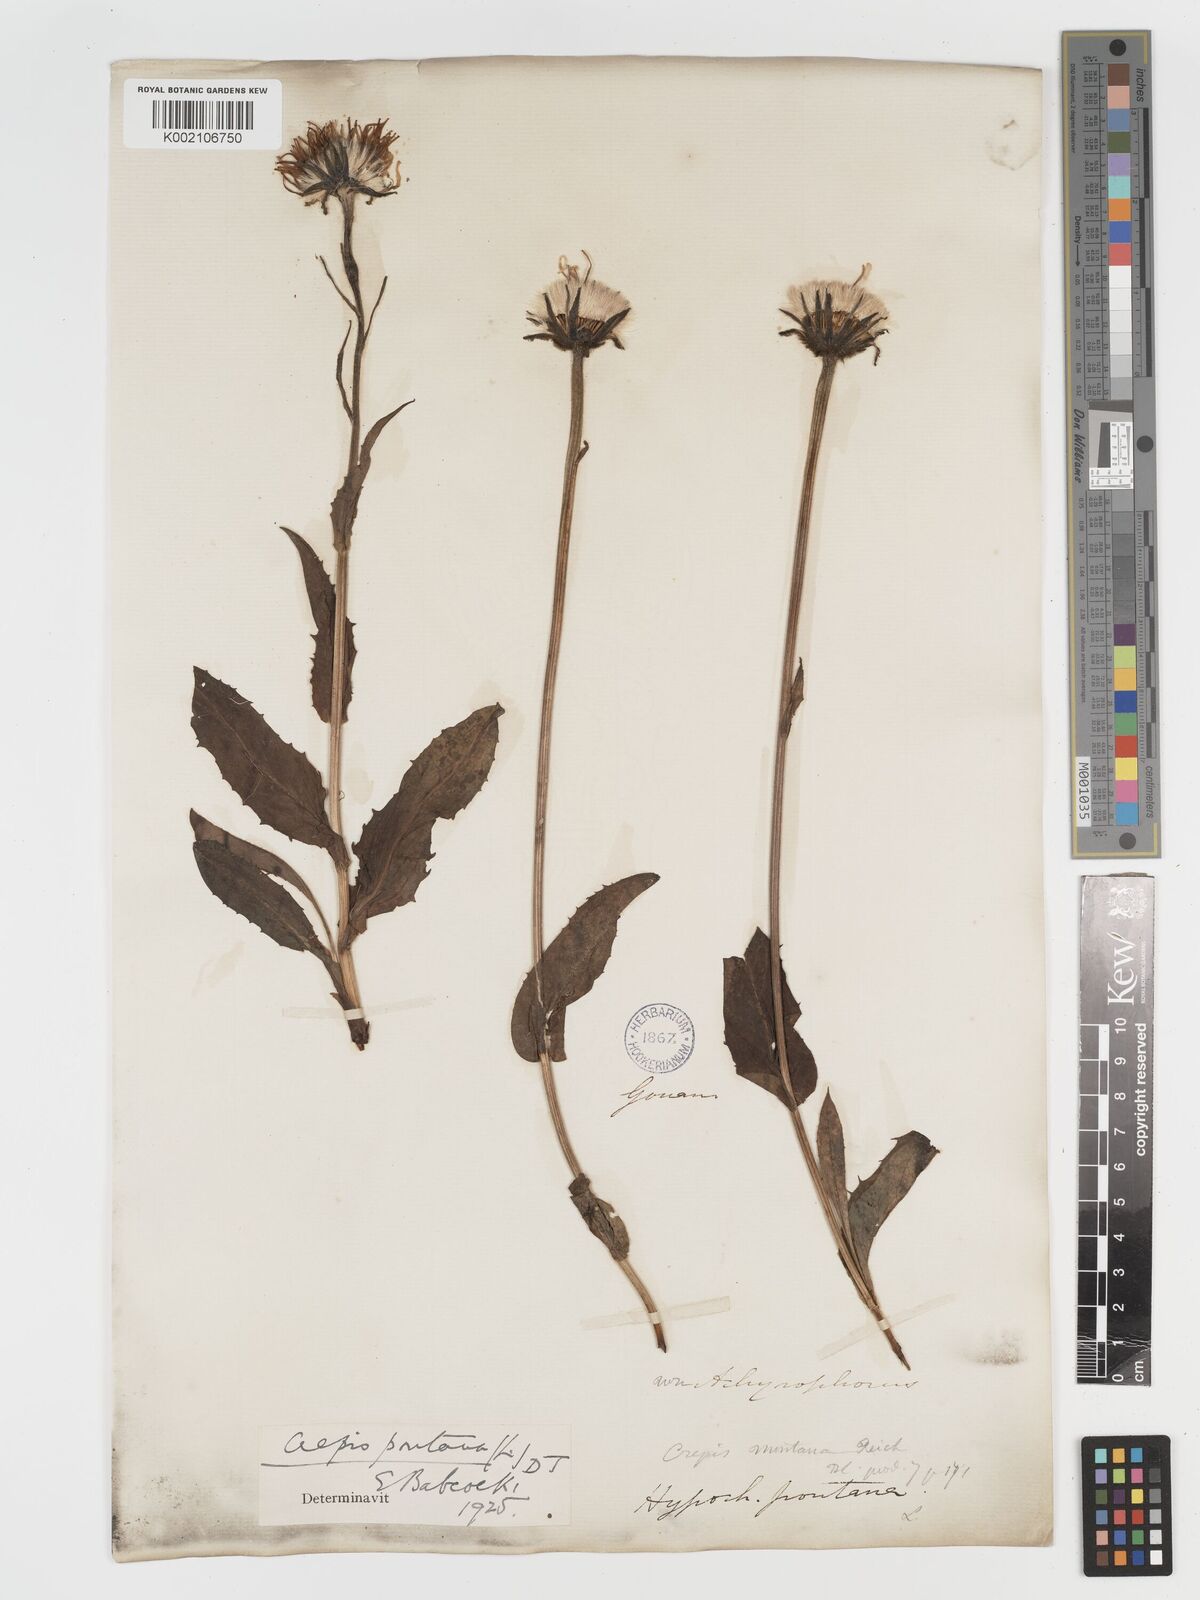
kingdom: Plantae
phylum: Tracheophyta
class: Magnoliopsida
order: Asterales
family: Asteraceae
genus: Crepis
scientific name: Crepis pontana
